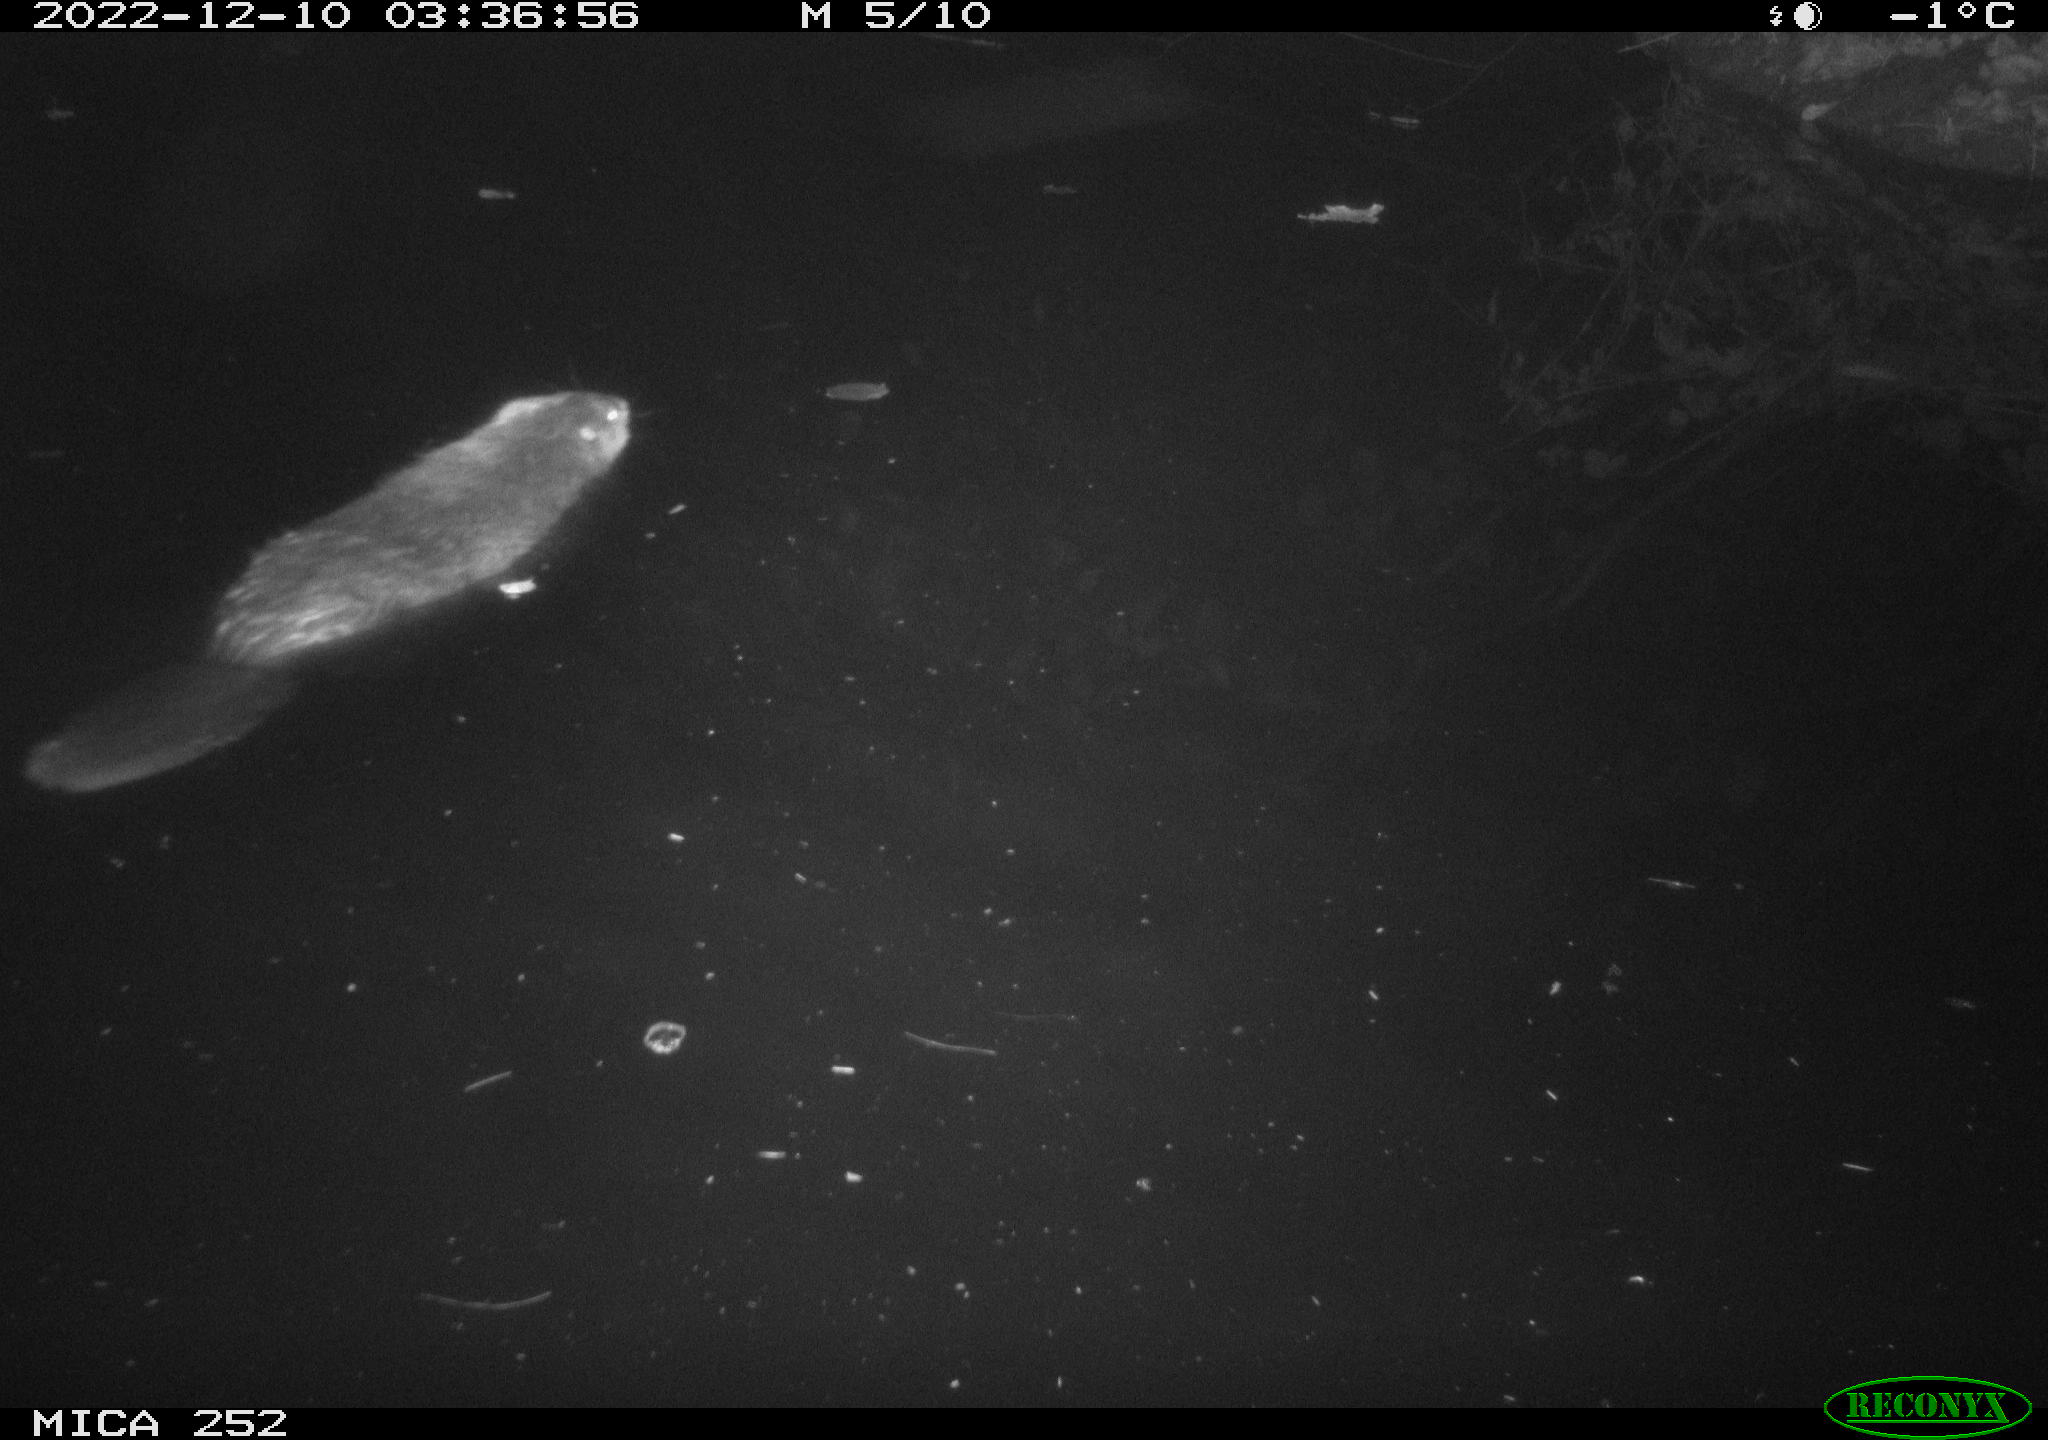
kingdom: Animalia
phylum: Chordata
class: Mammalia
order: Rodentia
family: Castoridae
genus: Castor
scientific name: Castor fiber
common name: Eurasian beaver
